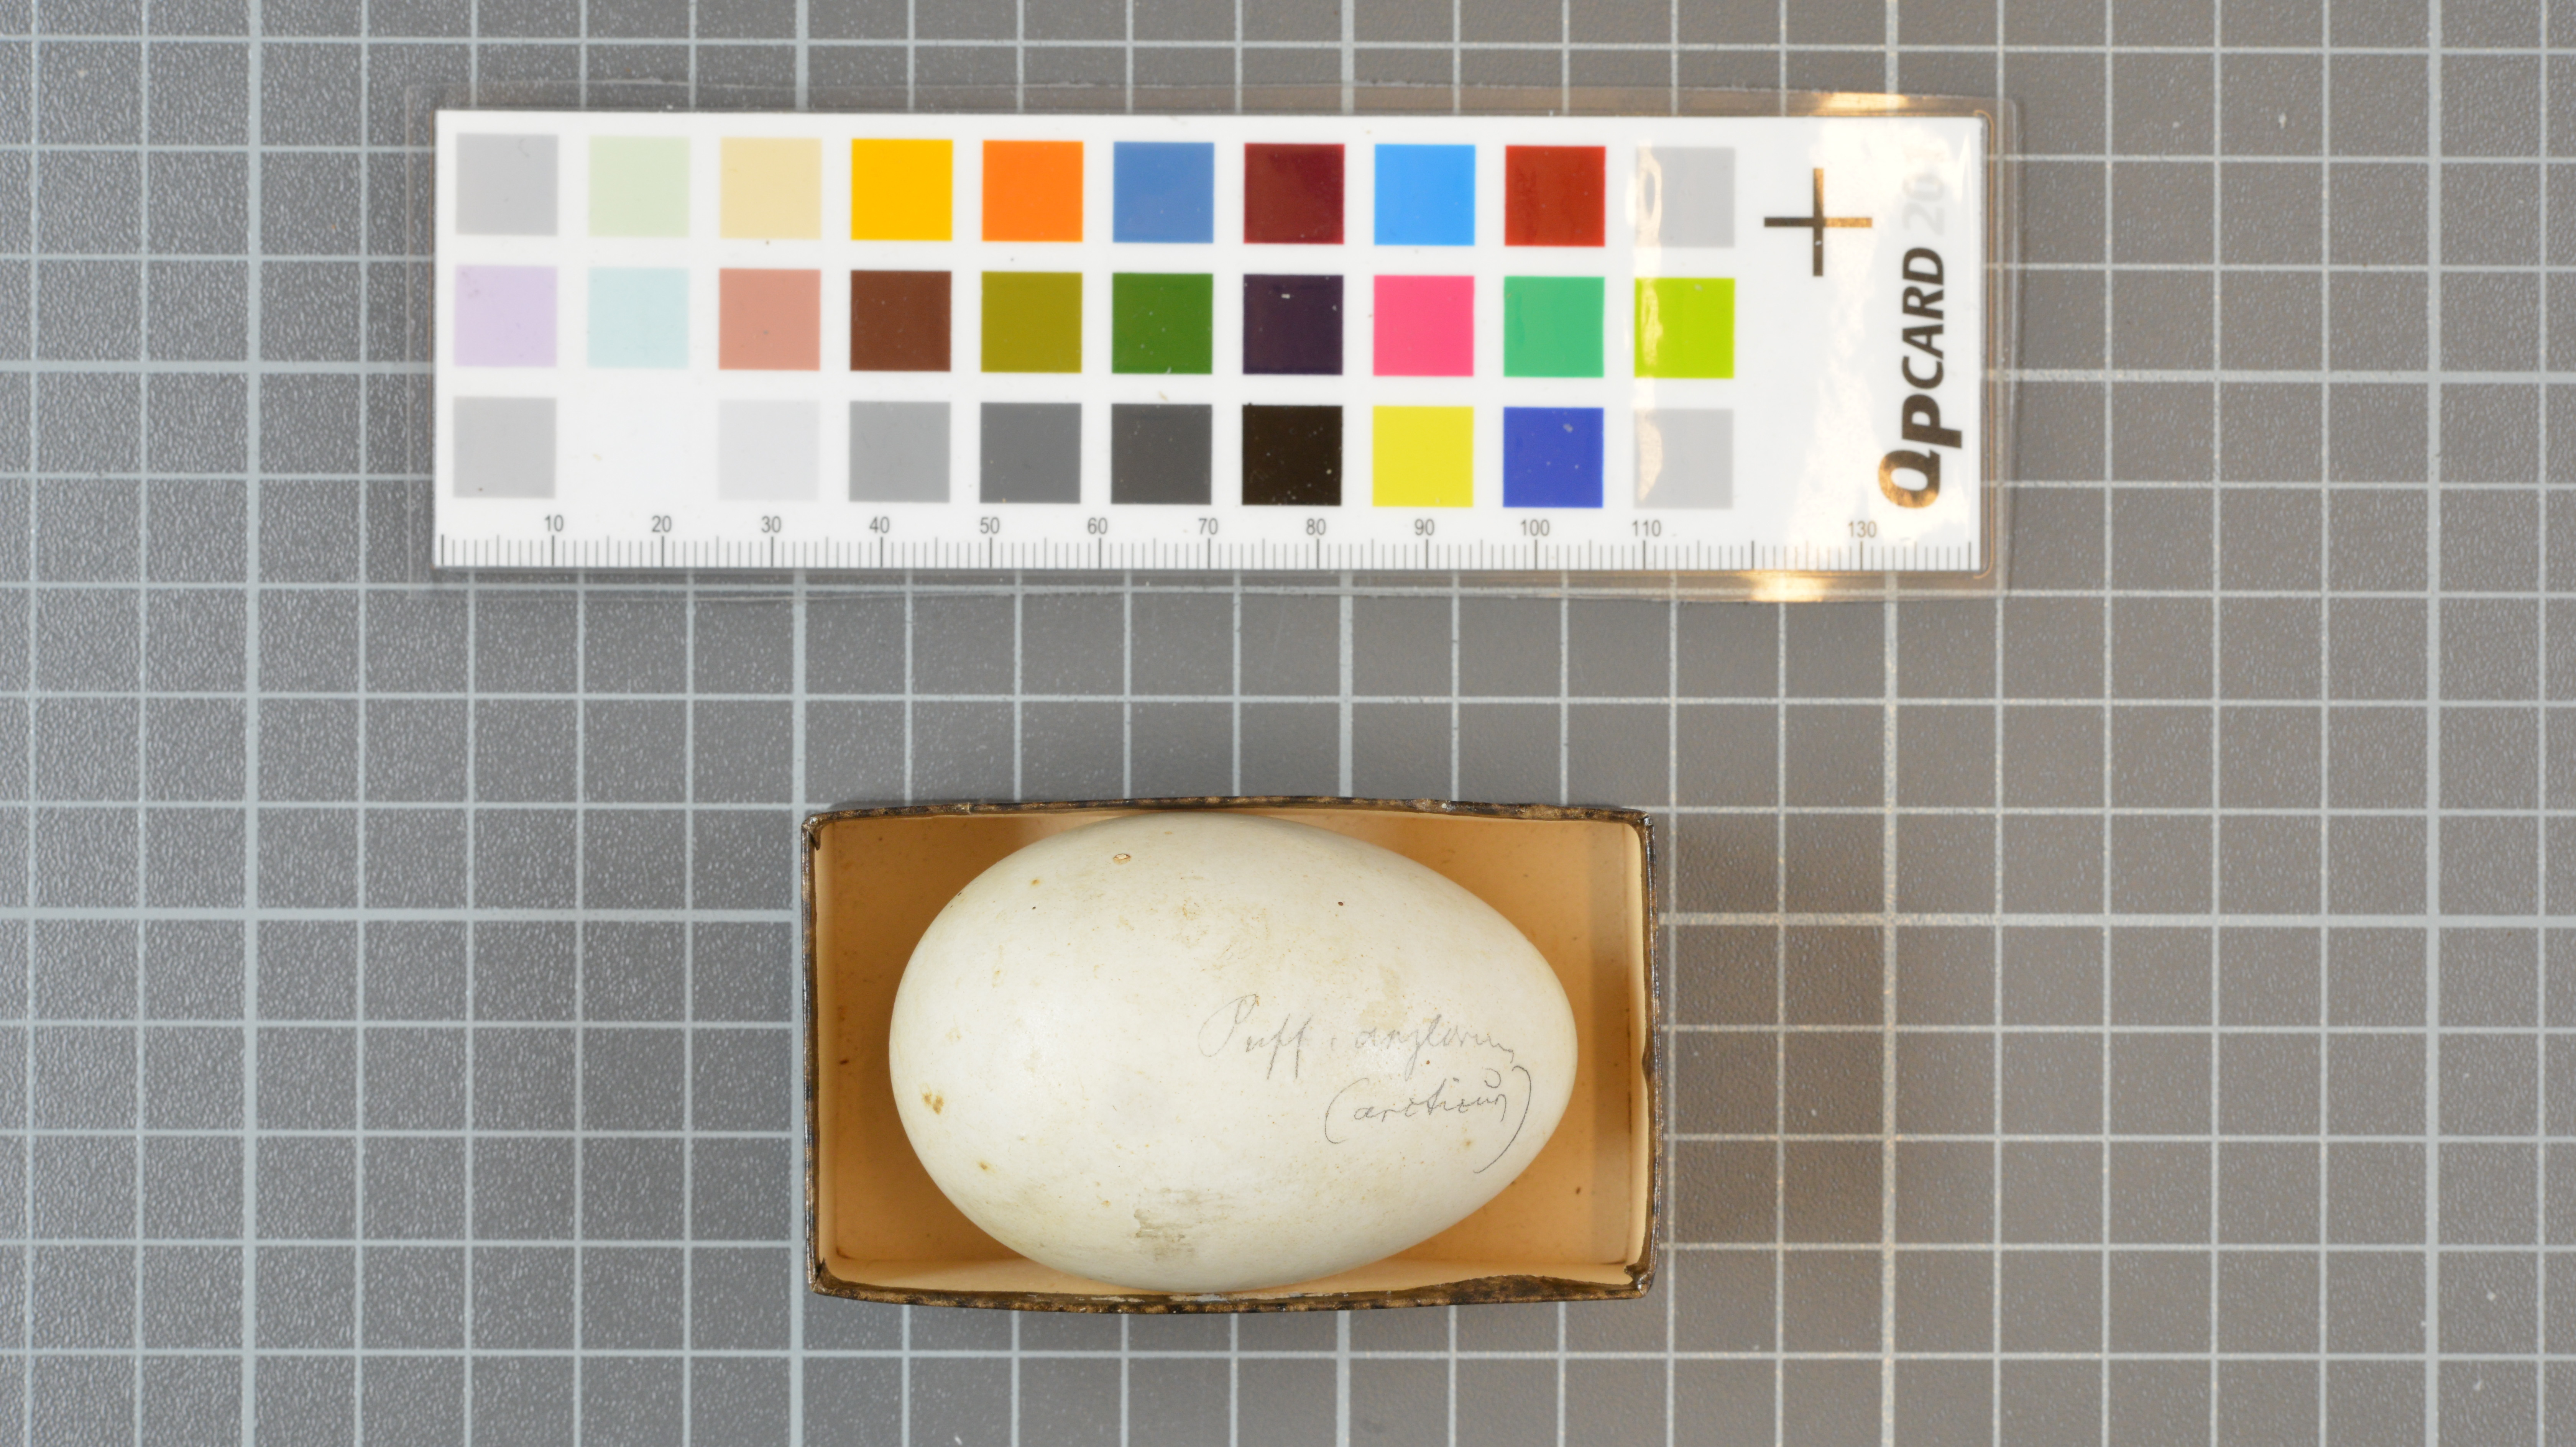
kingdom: Animalia
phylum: Chordata
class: Aves
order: Procellariiformes
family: Procellariidae
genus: Puffinus
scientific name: Puffinus puffinus
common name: Manx shearwater
